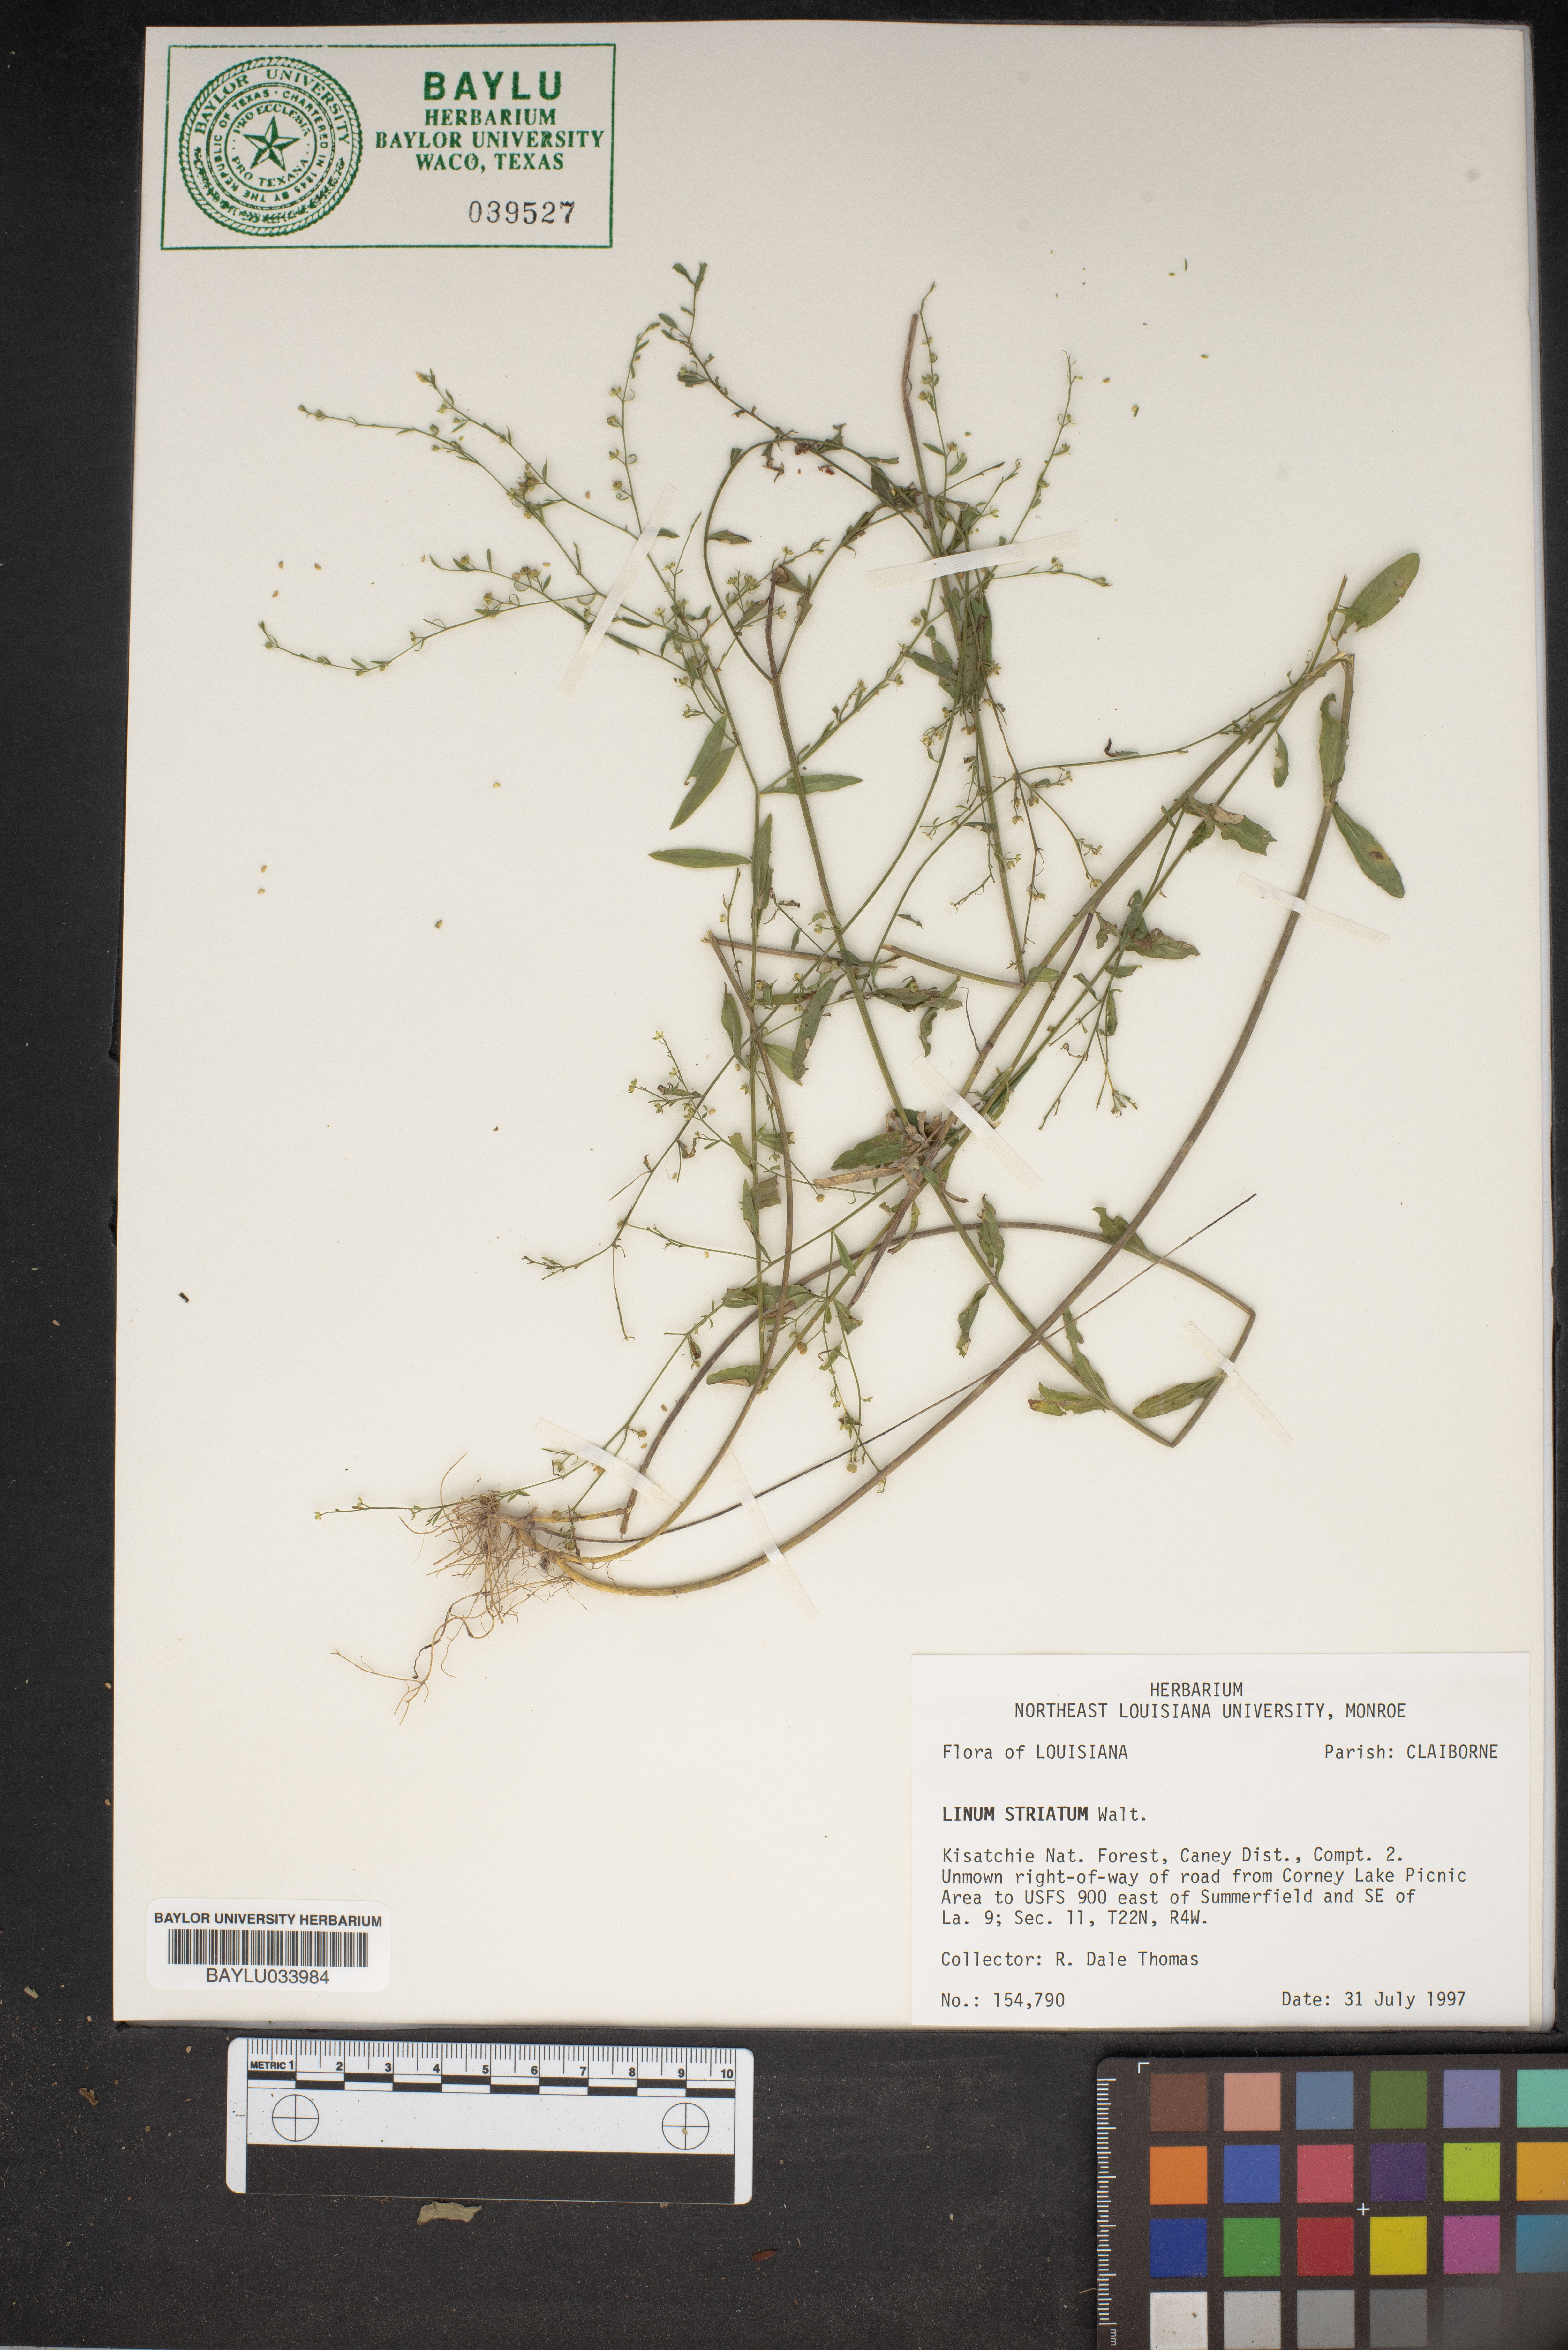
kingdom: Plantae
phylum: Tracheophyta
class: Magnoliopsida
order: Malpighiales
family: Linaceae
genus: Linum
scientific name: Linum striatum
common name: Ridged yellow flax
